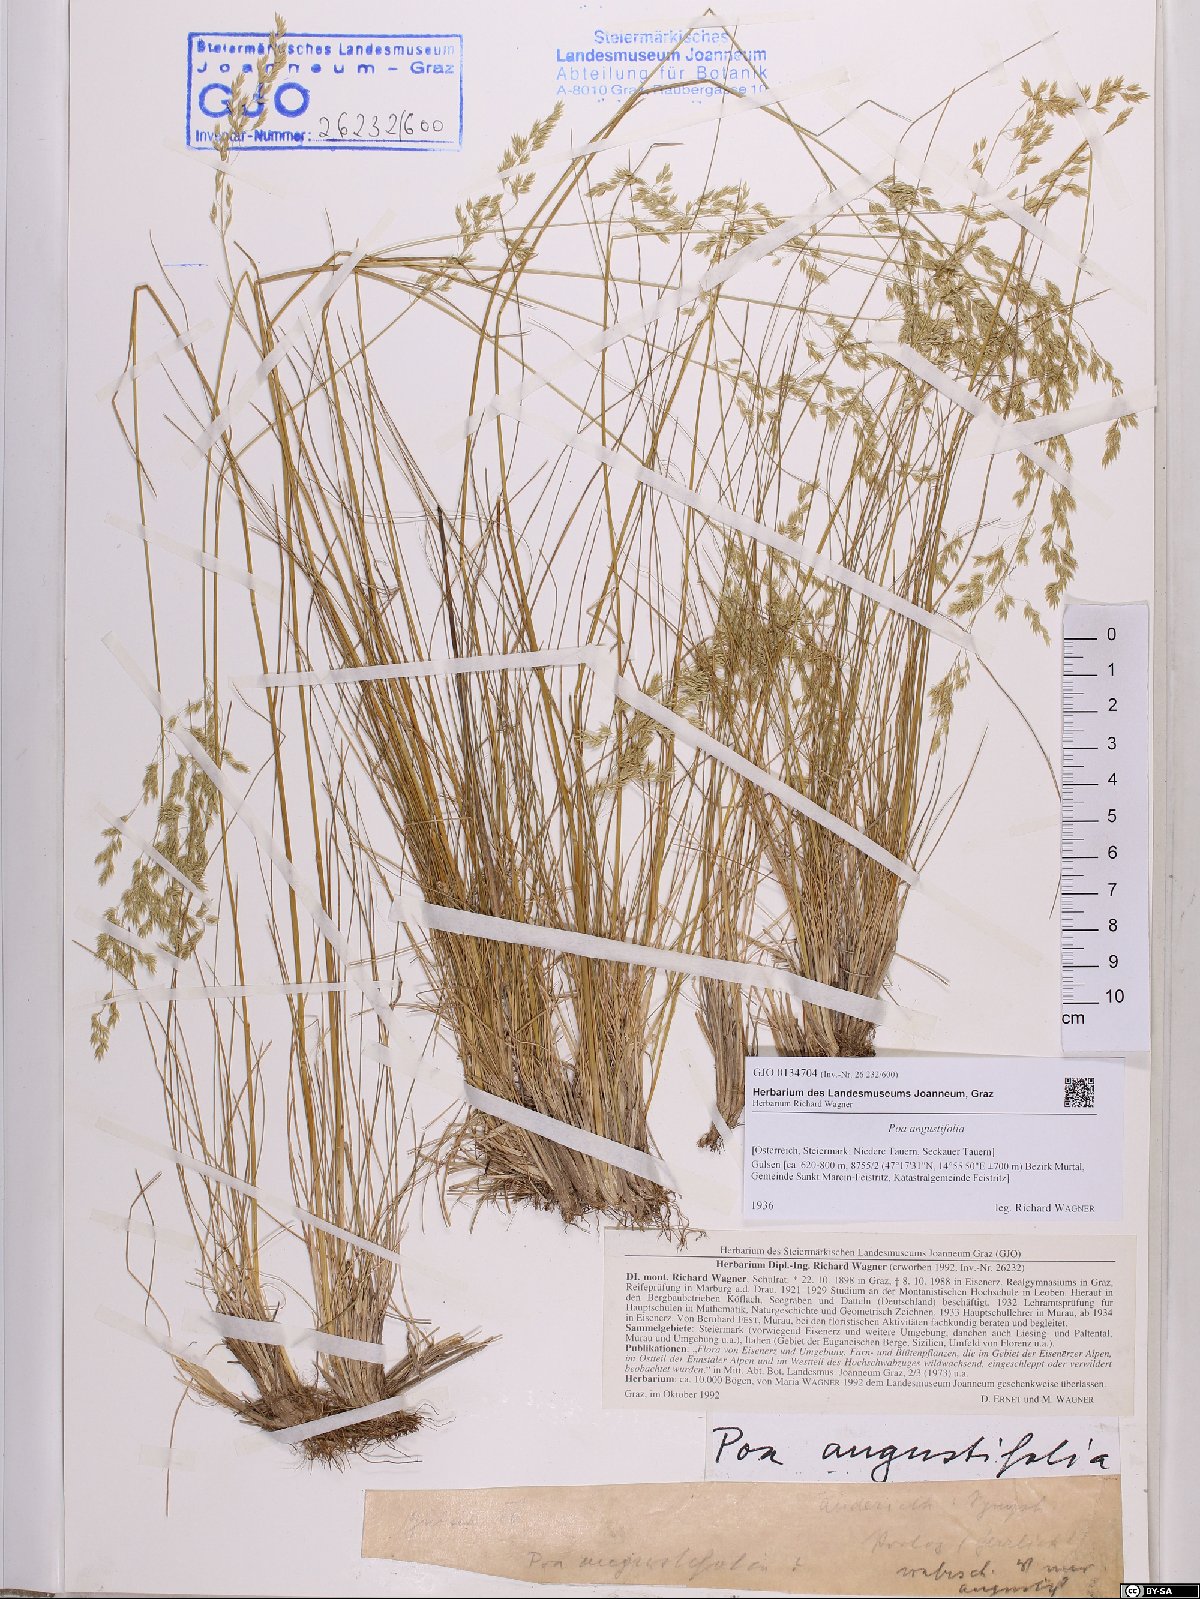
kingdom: Plantae
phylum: Tracheophyta
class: Liliopsida
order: Poales
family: Poaceae
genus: Poa
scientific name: Poa angustifolia
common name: Narrow-leaved meadow-grass
